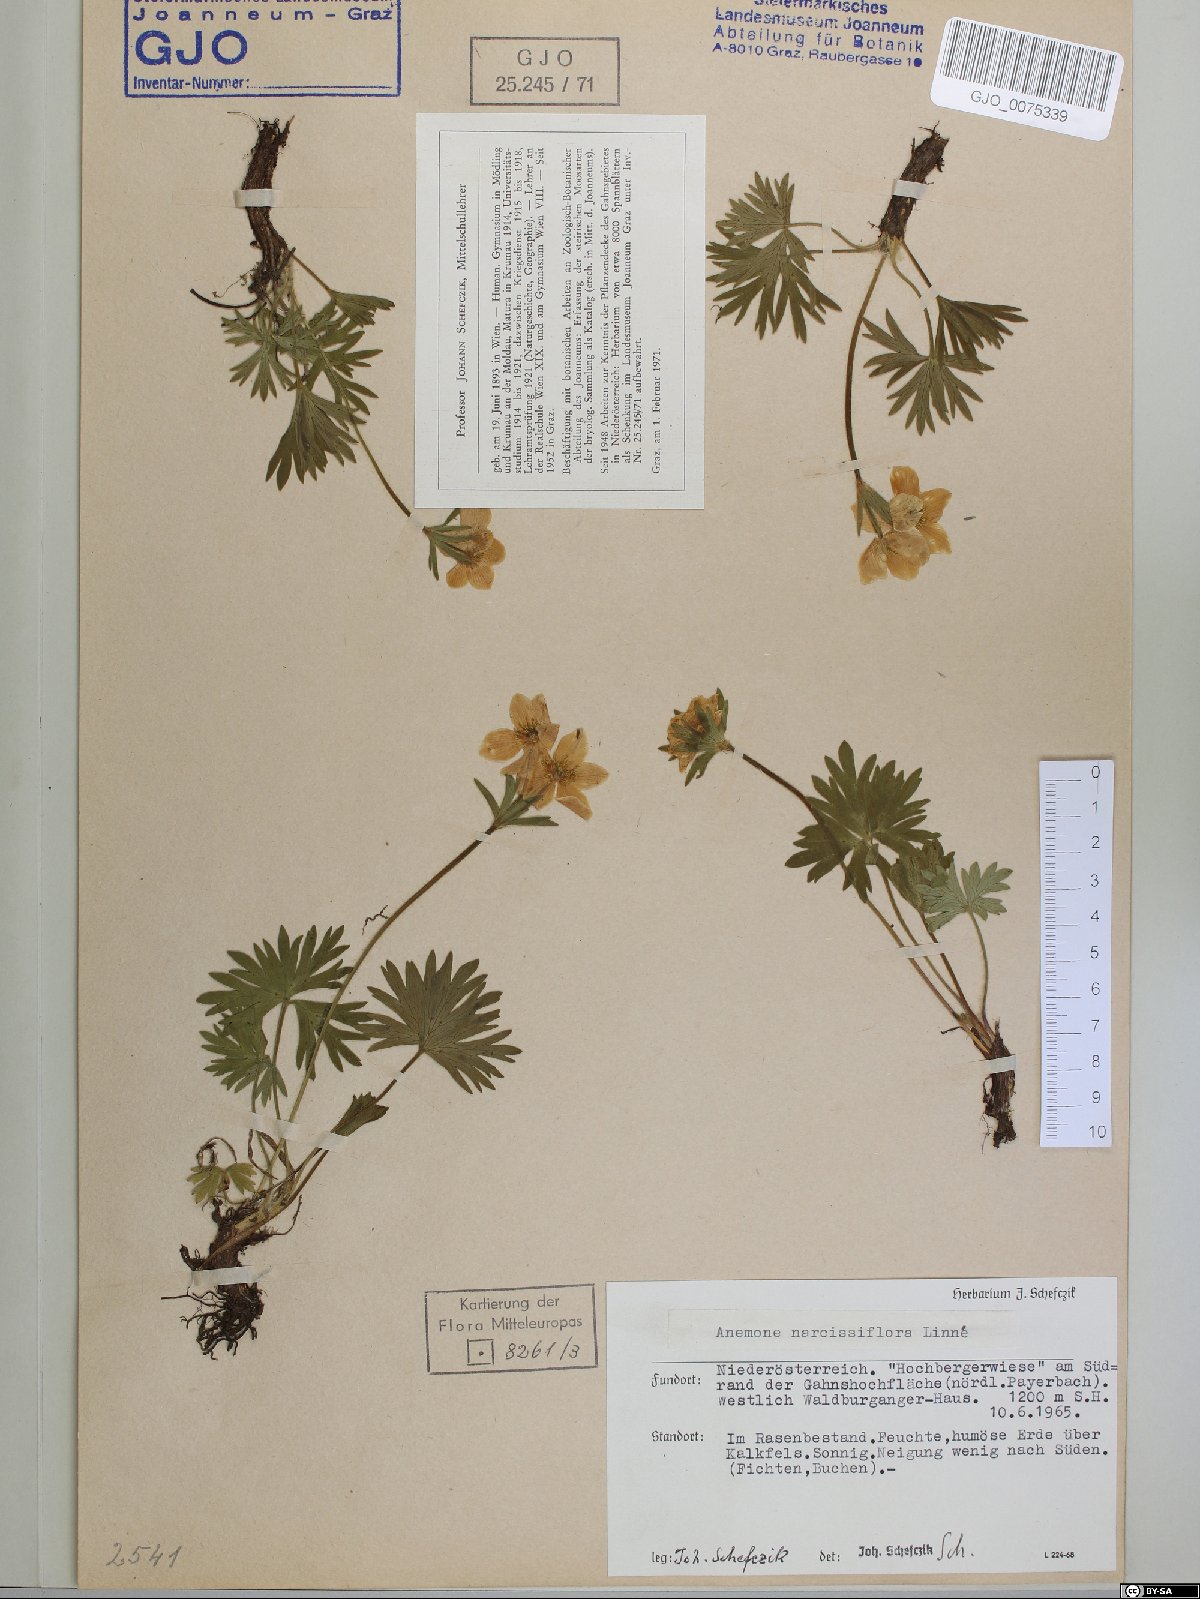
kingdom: Plantae
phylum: Tracheophyta
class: Magnoliopsida
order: Ranunculales
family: Ranunculaceae
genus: Anemonastrum
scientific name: Anemonastrum narcissiflorum
